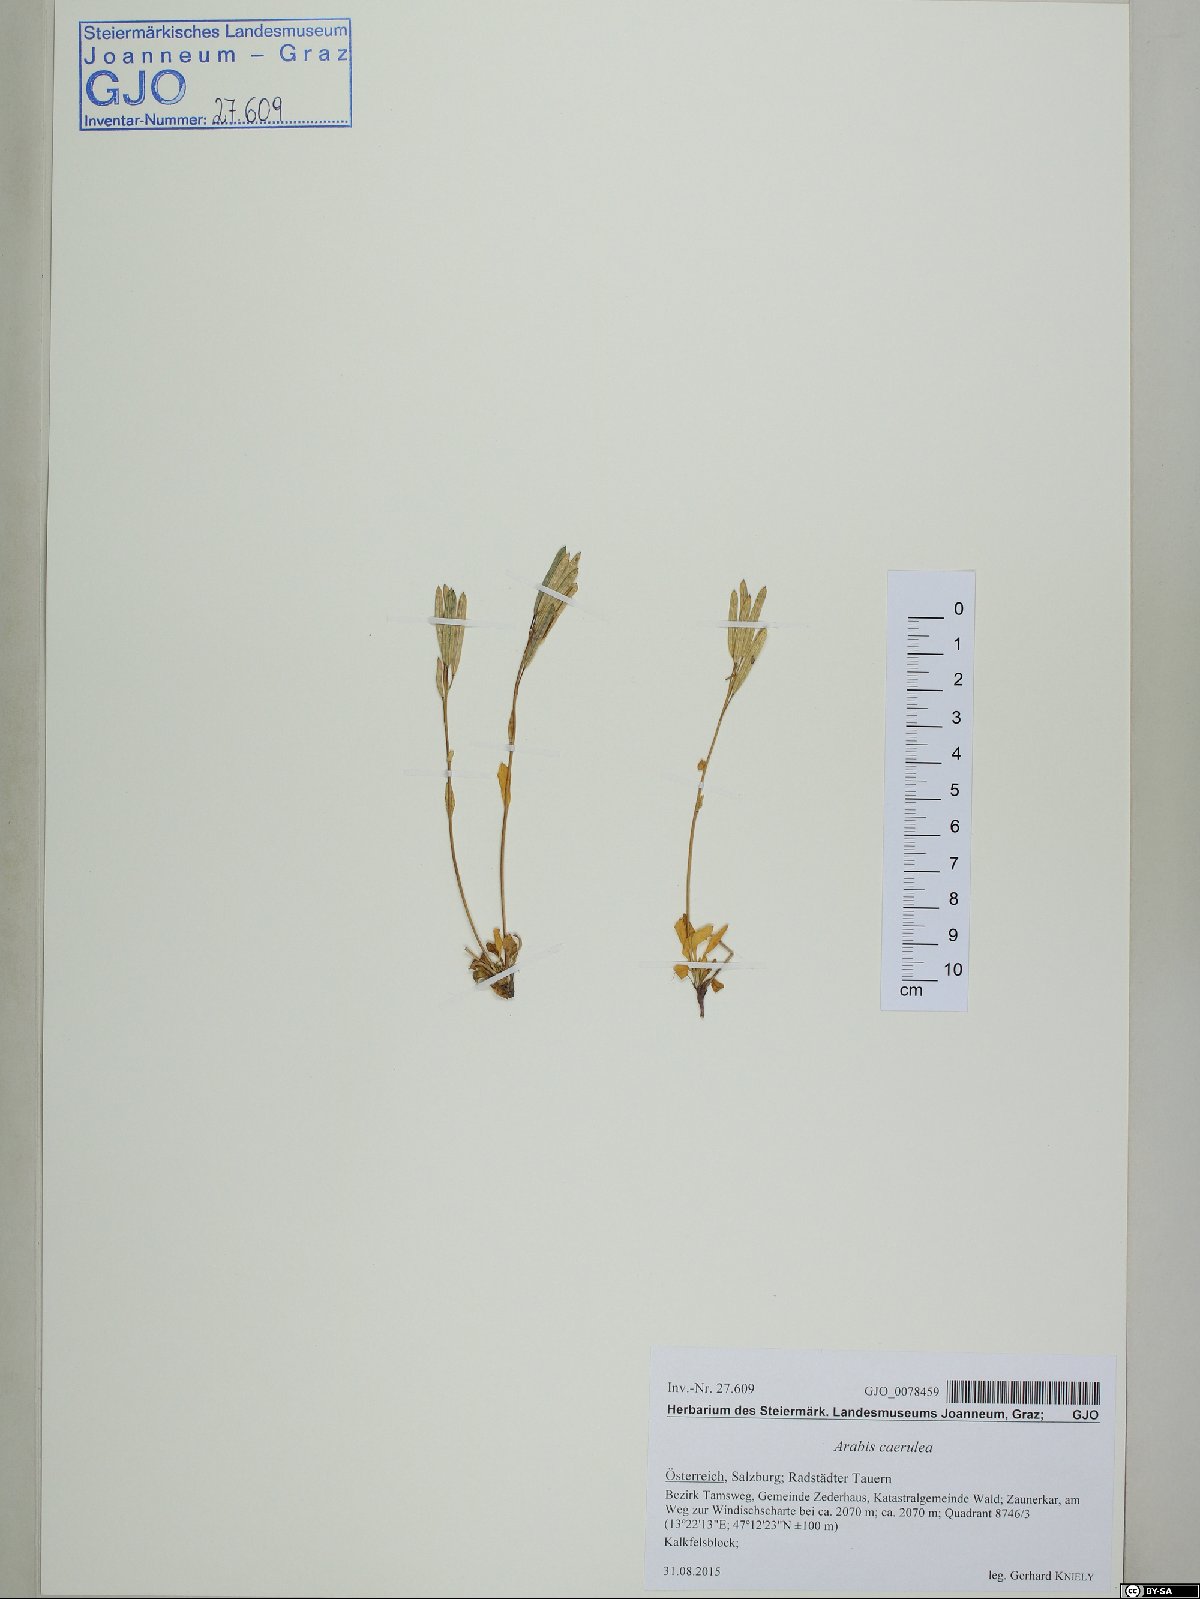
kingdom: Plantae
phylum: Tracheophyta
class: Magnoliopsida
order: Brassicales
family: Brassicaceae
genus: Arabis
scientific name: Arabis caerulea
